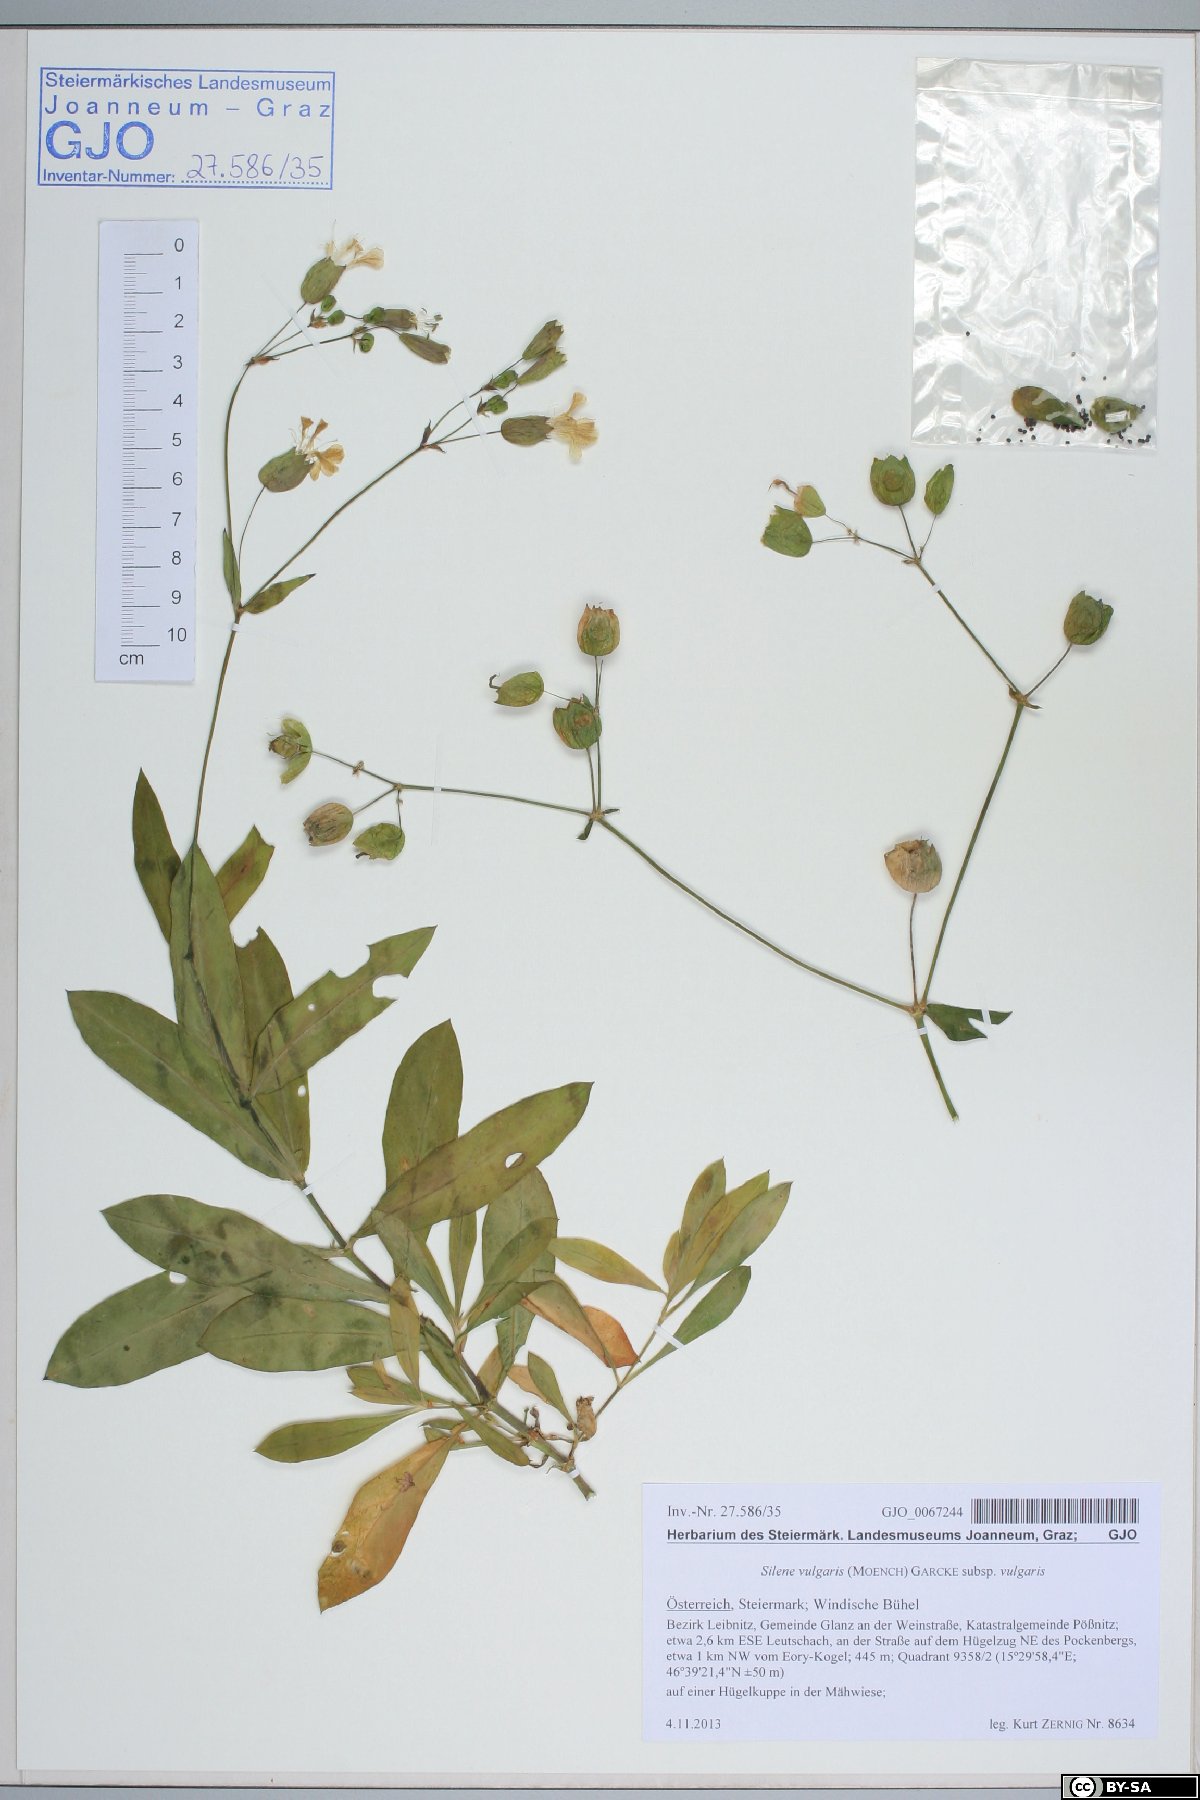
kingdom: Plantae
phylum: Tracheophyta
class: Magnoliopsida
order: Caryophyllales
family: Caryophyllaceae
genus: Silene
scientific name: Silene vulgaris
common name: Bladder campion
